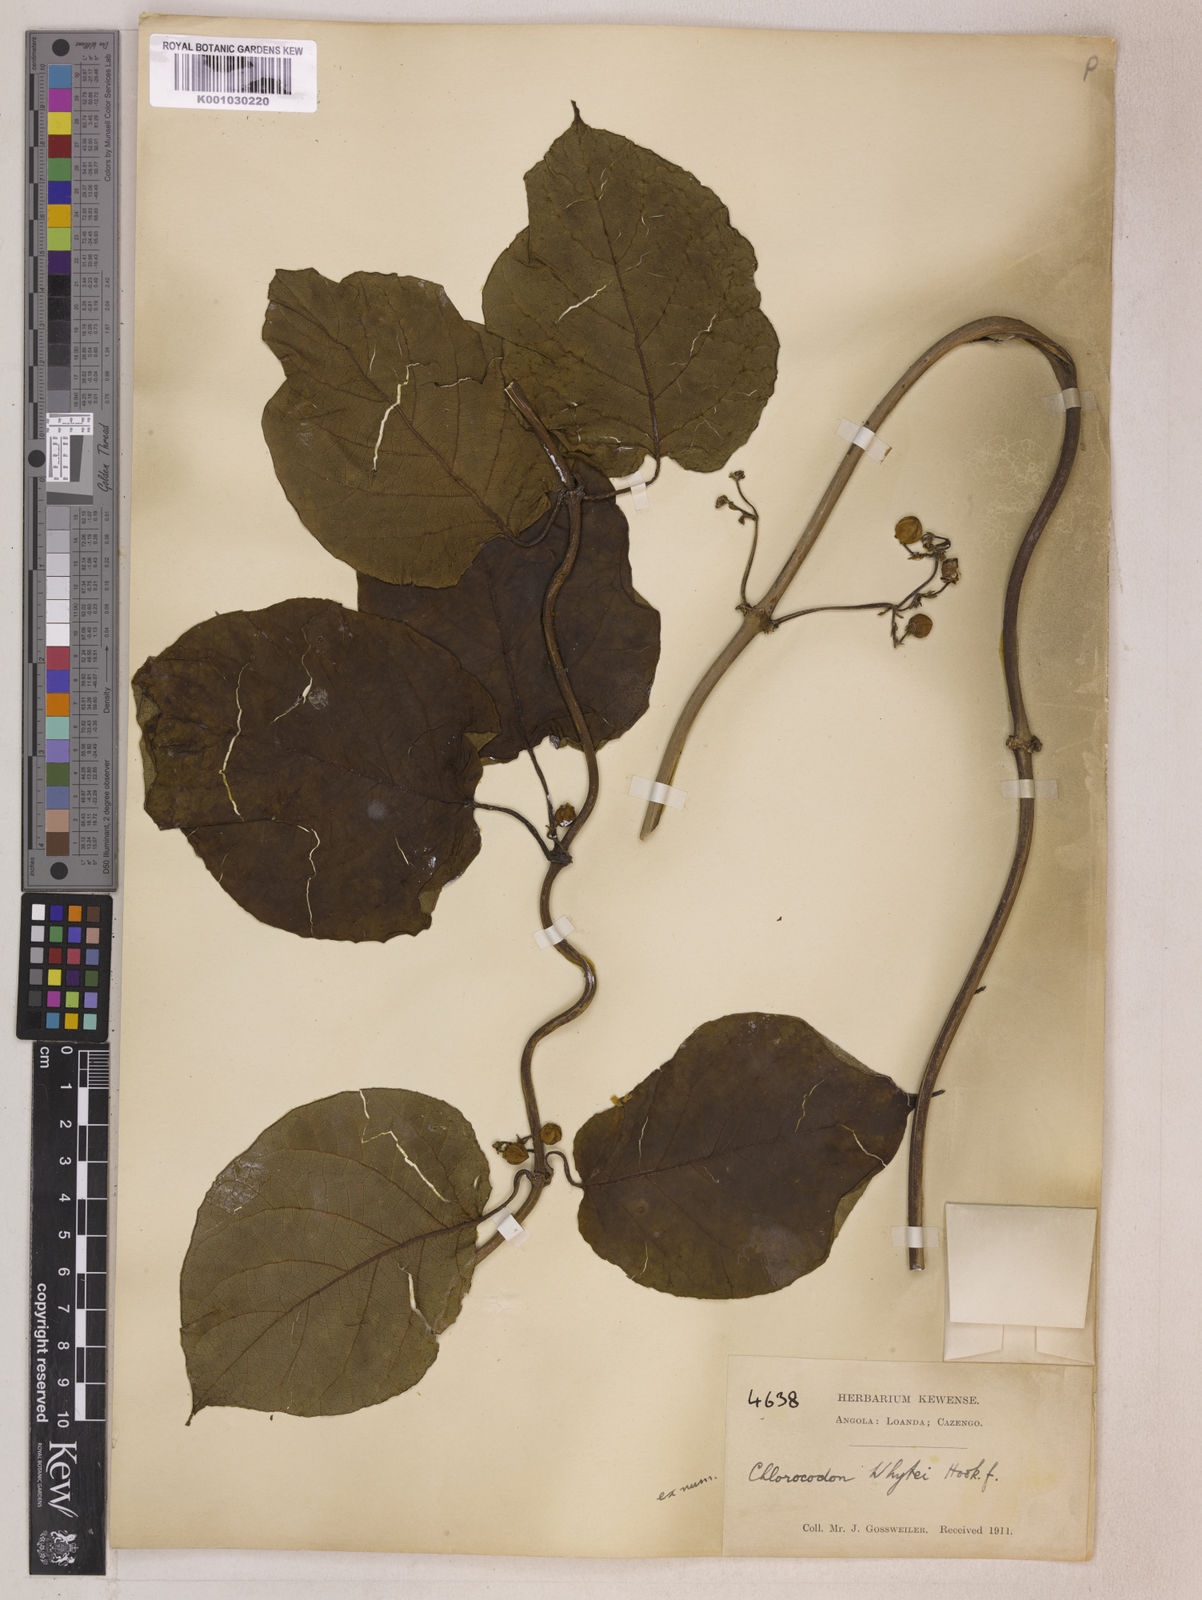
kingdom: Plantae
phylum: Tracheophyta
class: Magnoliopsida
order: Gentianales
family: Apocynaceae
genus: Mondia
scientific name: Mondia whitei
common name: Mondia
